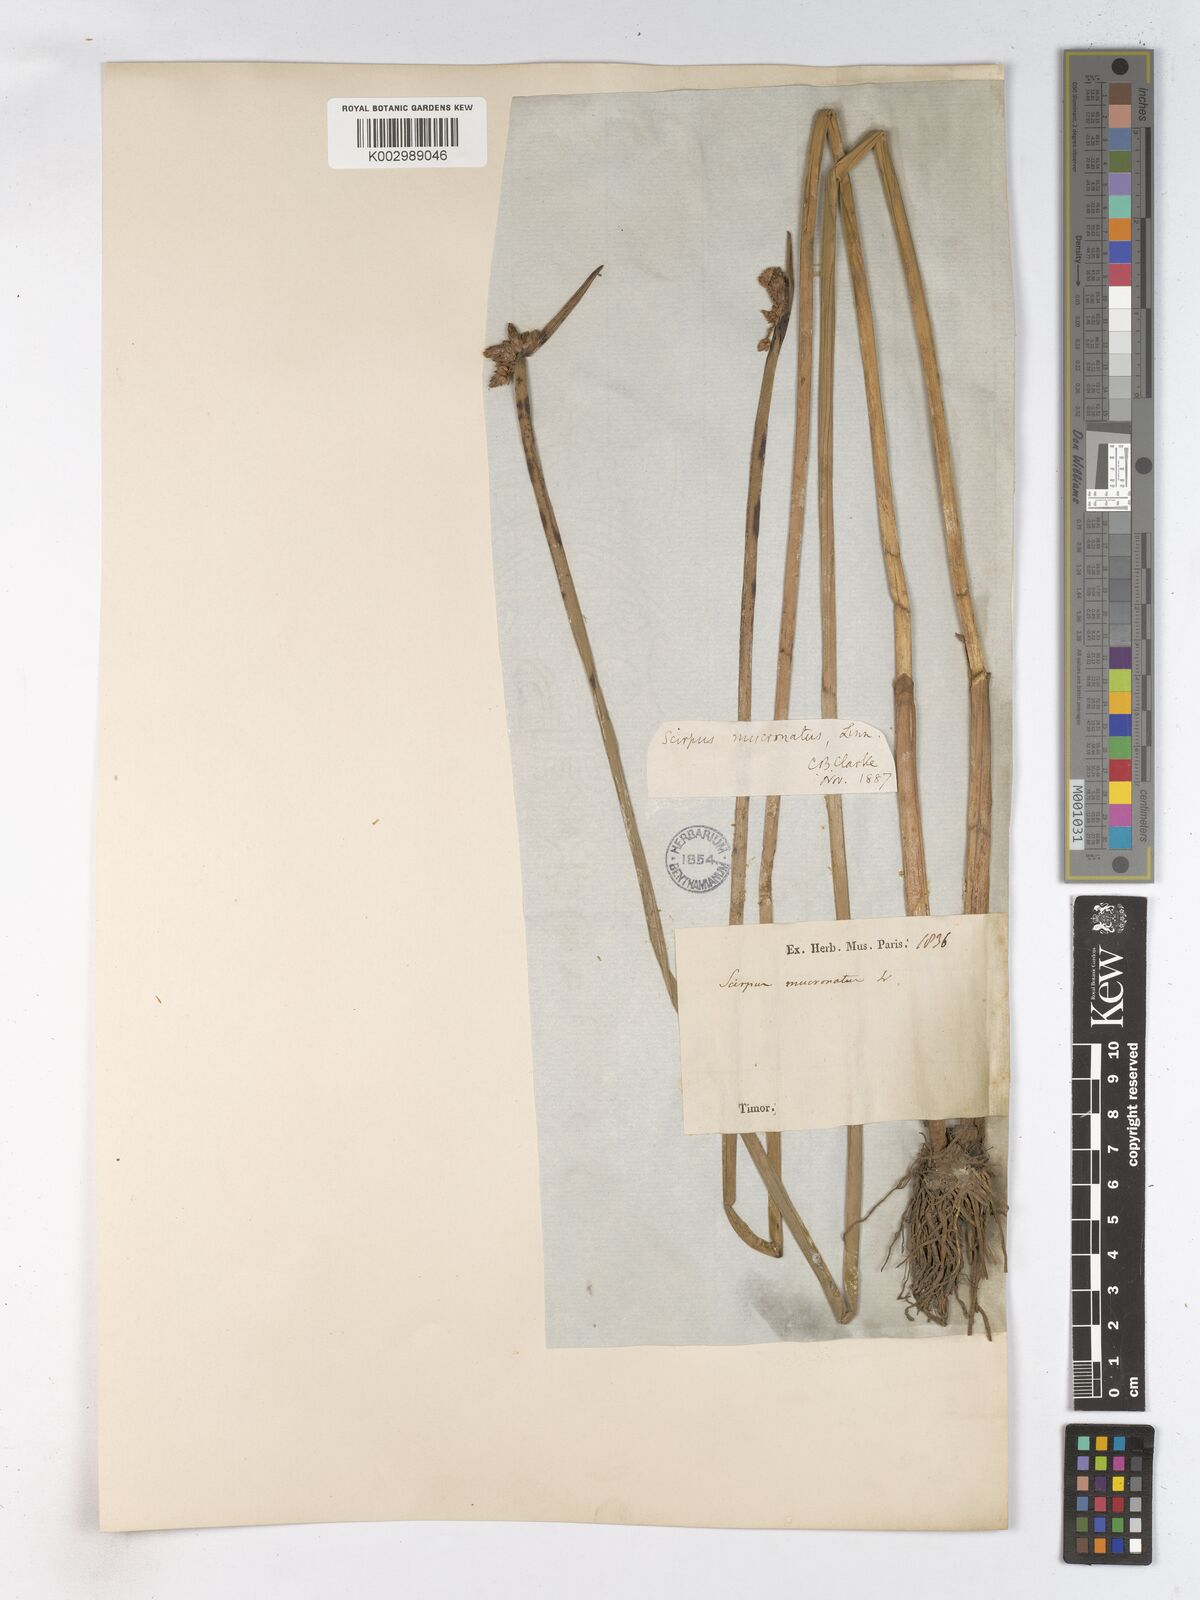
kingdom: Plantae
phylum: Tracheophyta
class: Liliopsida
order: Poales
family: Cyperaceae
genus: Schoenoplectiella
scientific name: Schoenoplectiella mucronata
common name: Bog bulrush
